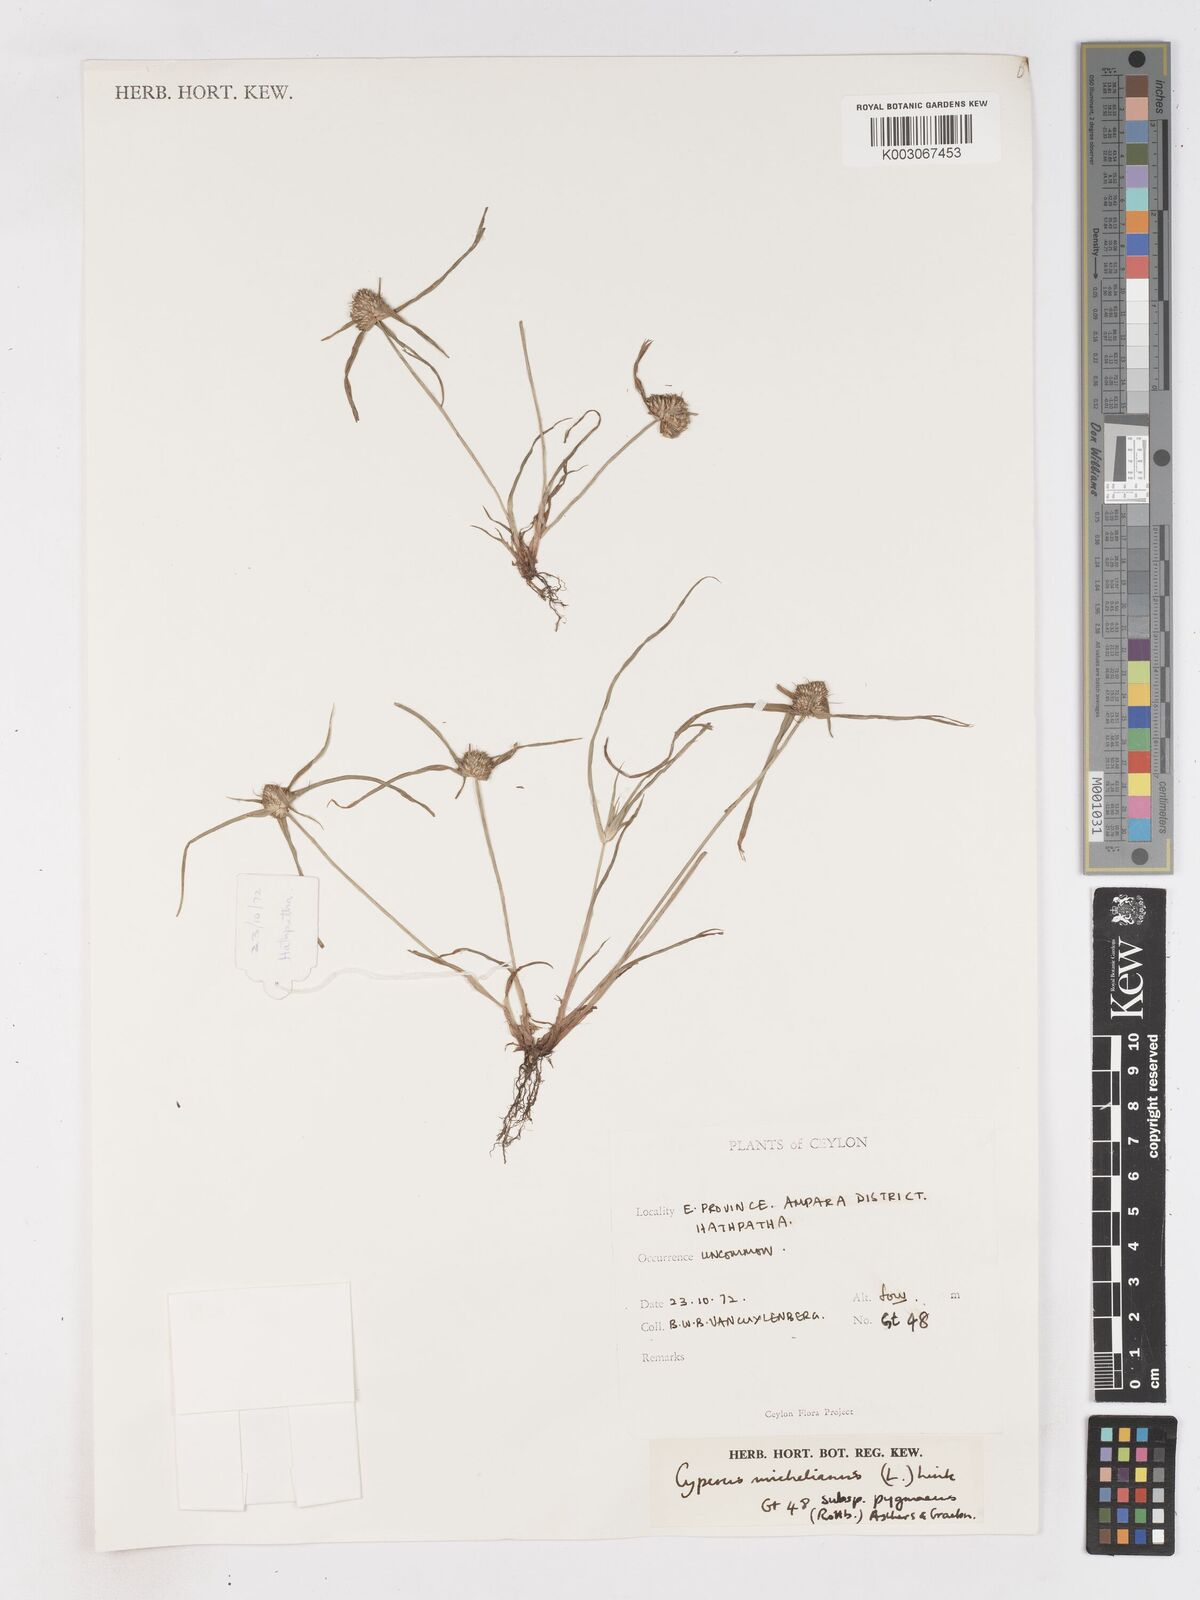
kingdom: Plantae
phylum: Tracheophyta
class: Liliopsida
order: Poales
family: Cyperaceae
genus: Cyperus
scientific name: Cyperus michelianus
